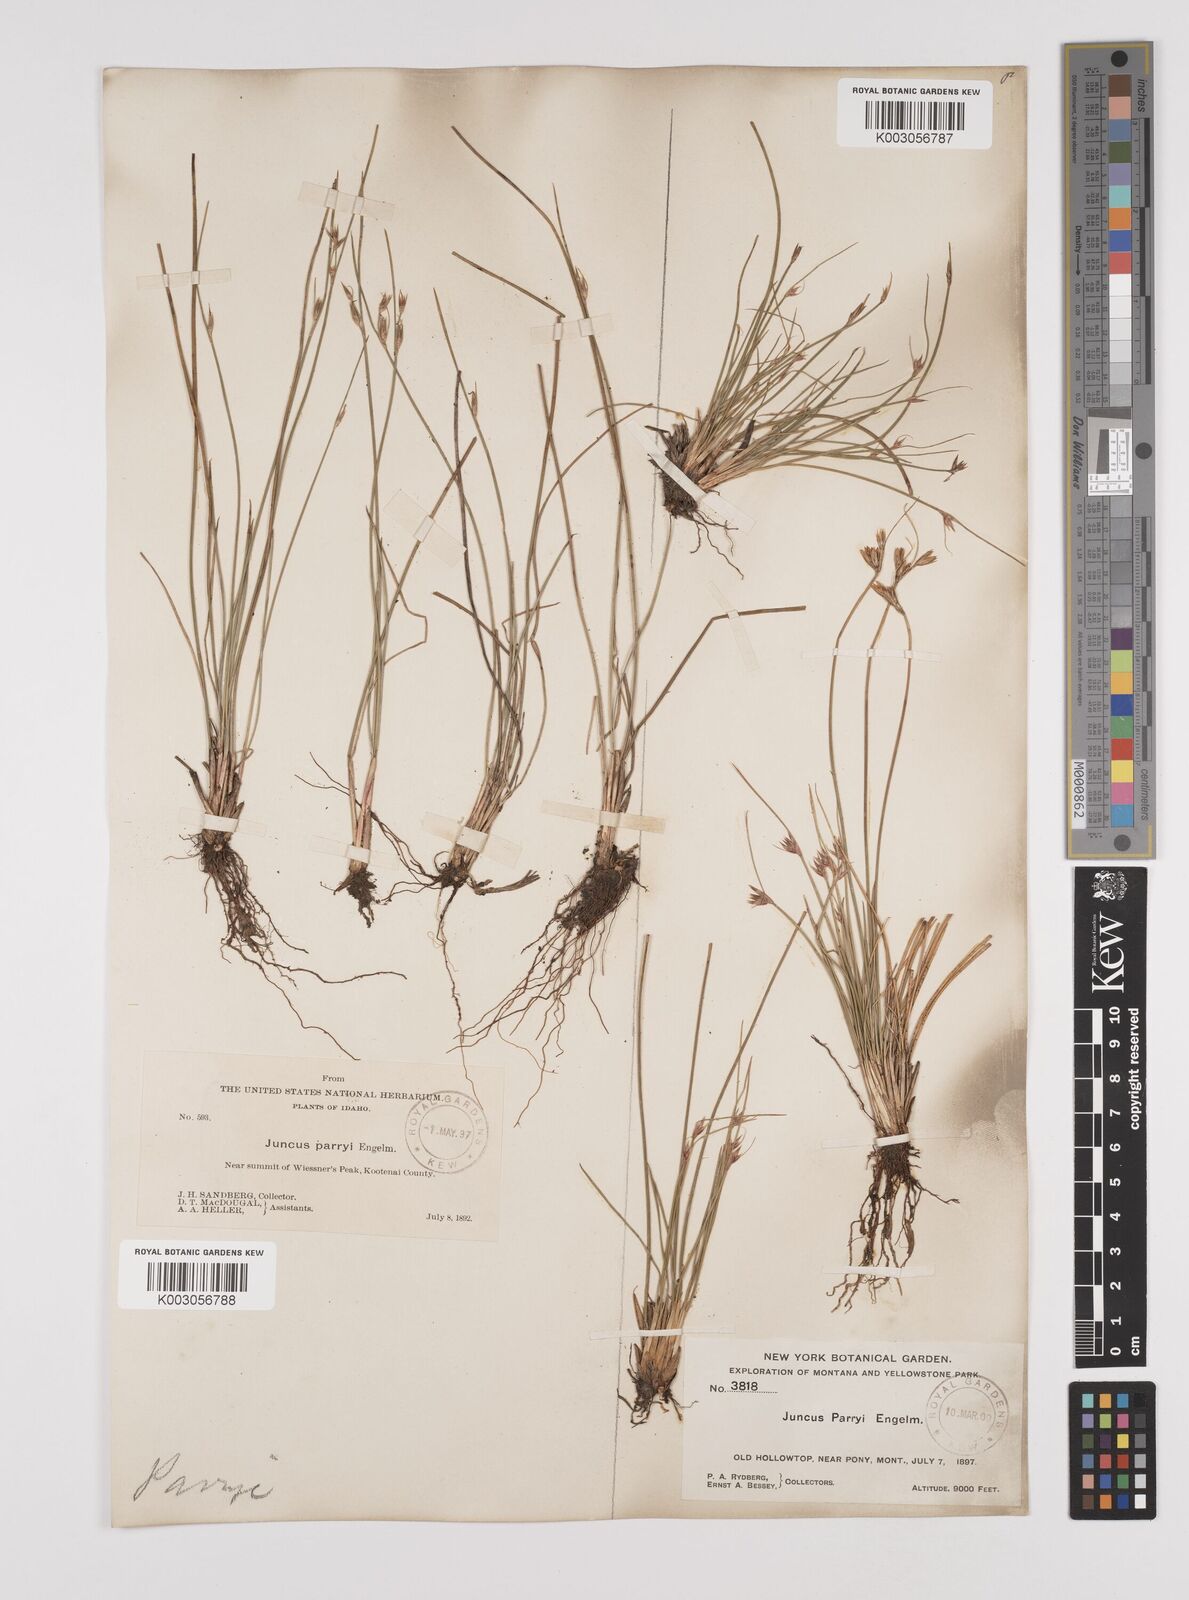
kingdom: Plantae
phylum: Tracheophyta
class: Liliopsida
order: Poales
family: Juncaceae
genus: Juncus
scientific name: Juncus parryi
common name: Parry's rush
